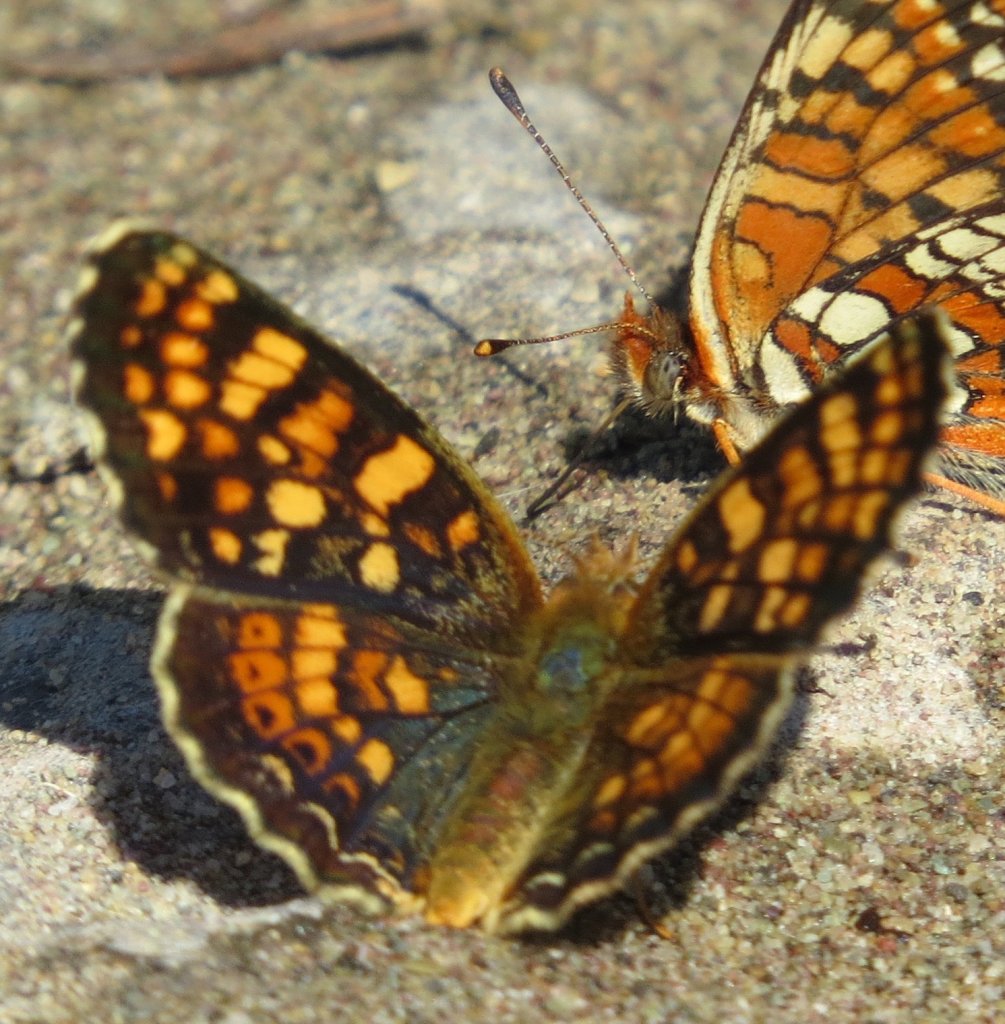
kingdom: Animalia
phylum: Arthropoda
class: Insecta
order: Lepidoptera
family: Nymphalidae
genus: Phyciodes
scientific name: Phyciodes tharos
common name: Field Crescent
